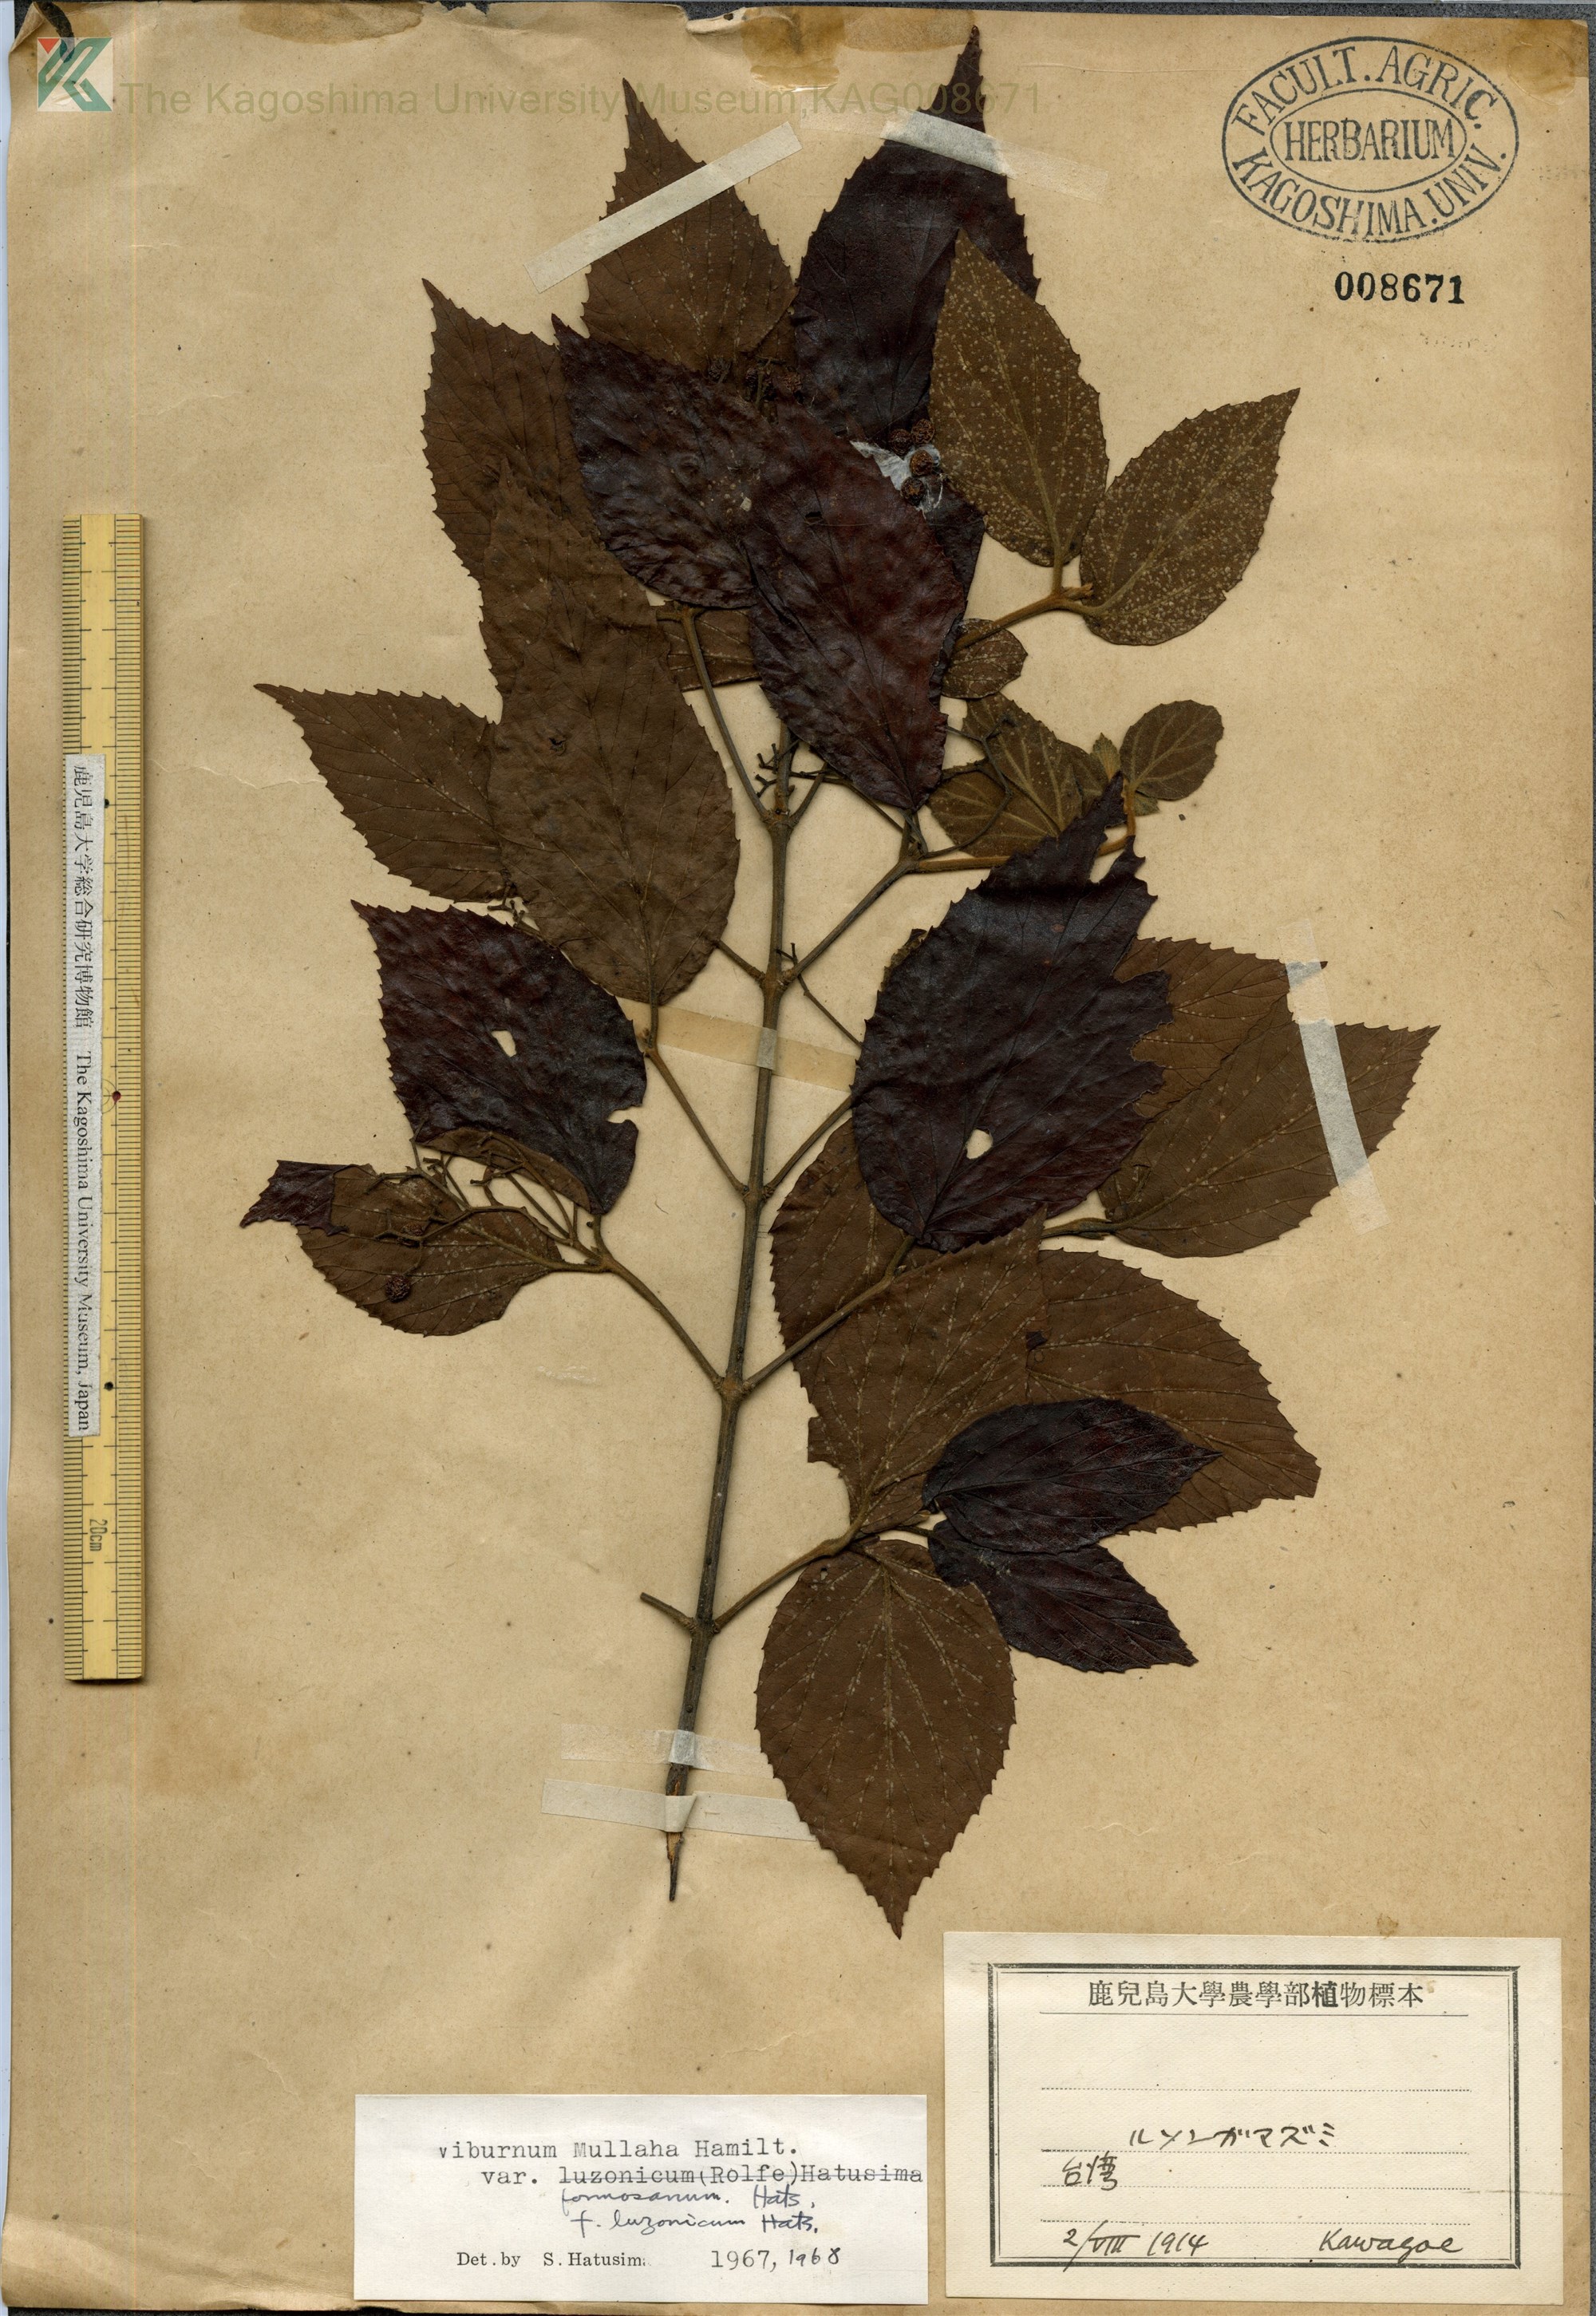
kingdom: Plantae
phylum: Tracheophyta
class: Magnoliopsida
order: Dipsacales
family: Viburnaceae
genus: Viburnum
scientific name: Viburnum mullaha
